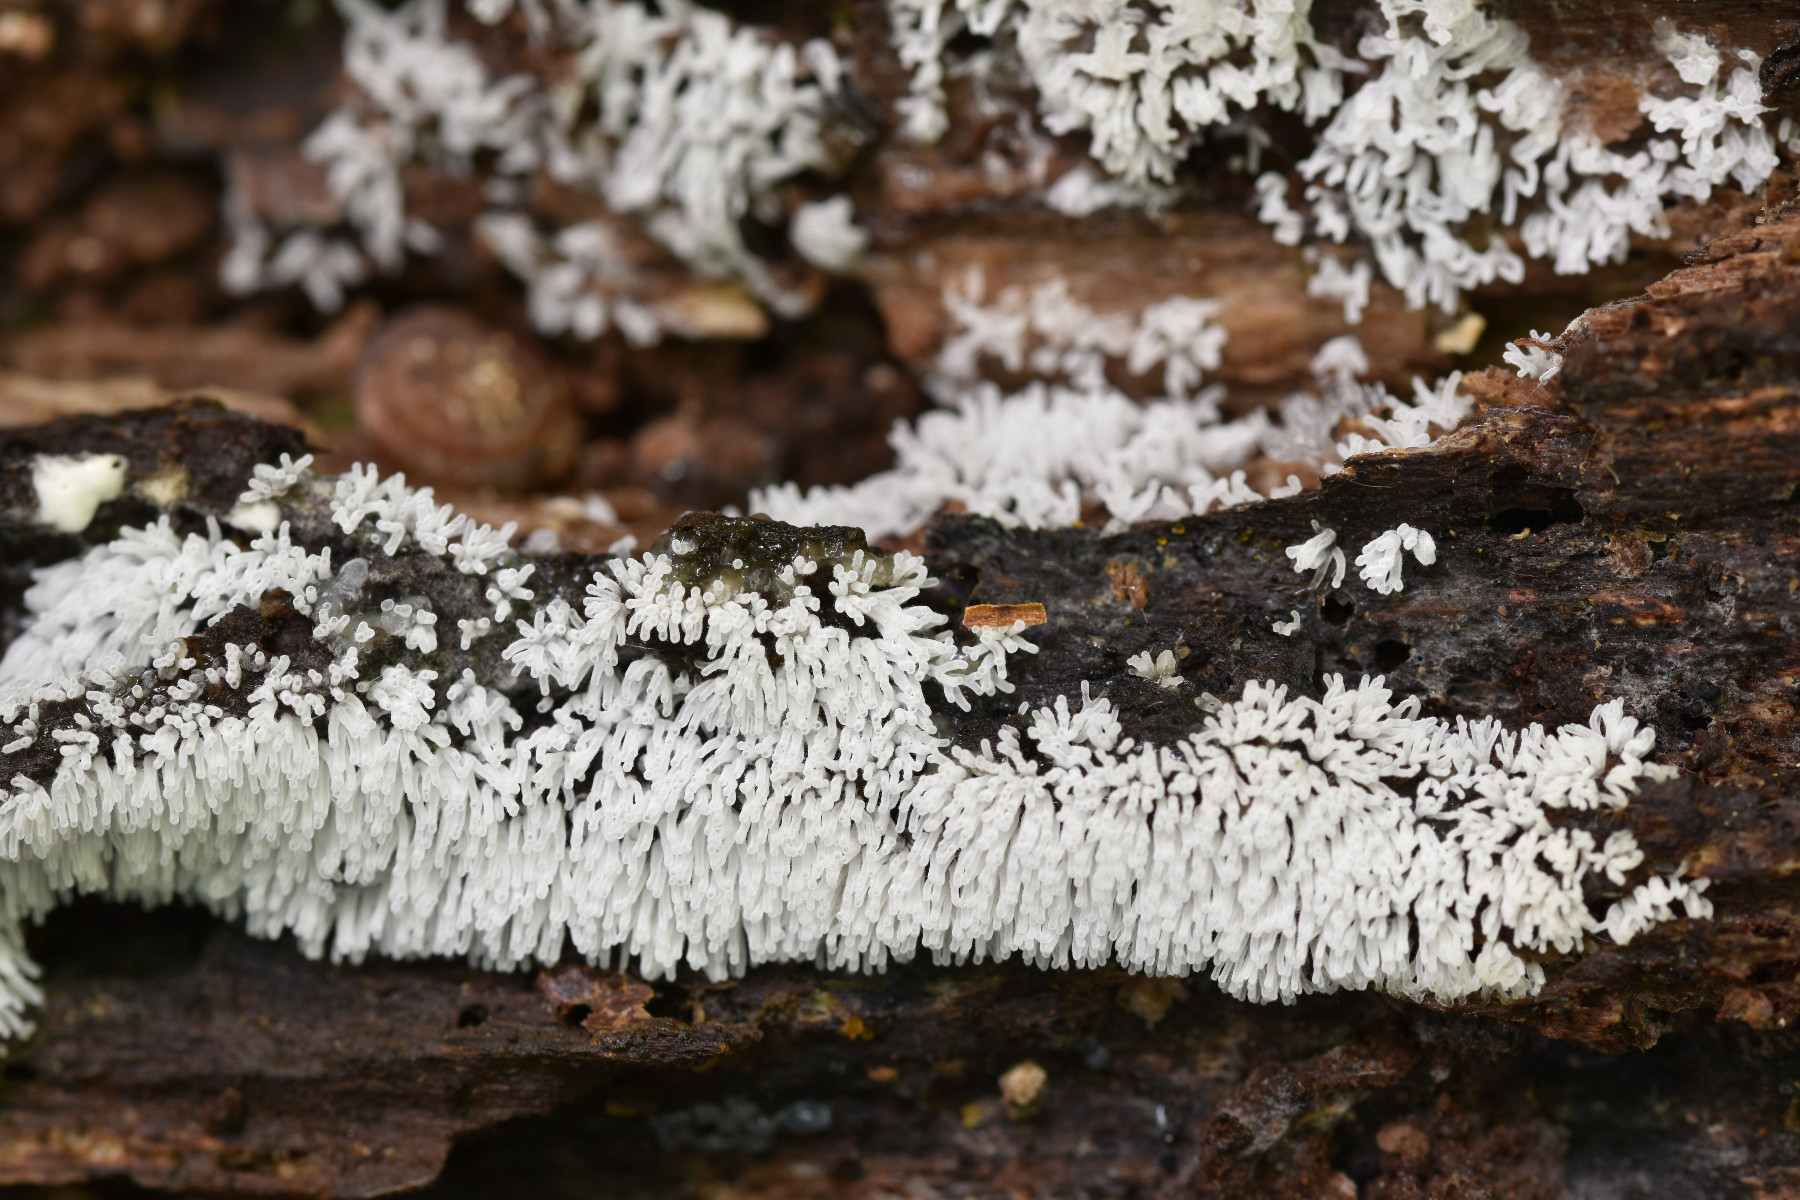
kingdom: Protozoa
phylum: Mycetozoa
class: Protosteliomycetes
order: Ceratiomyxales
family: Ceratiomyxaceae
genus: Ceratiomyxa
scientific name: Ceratiomyxa fruticulosa
